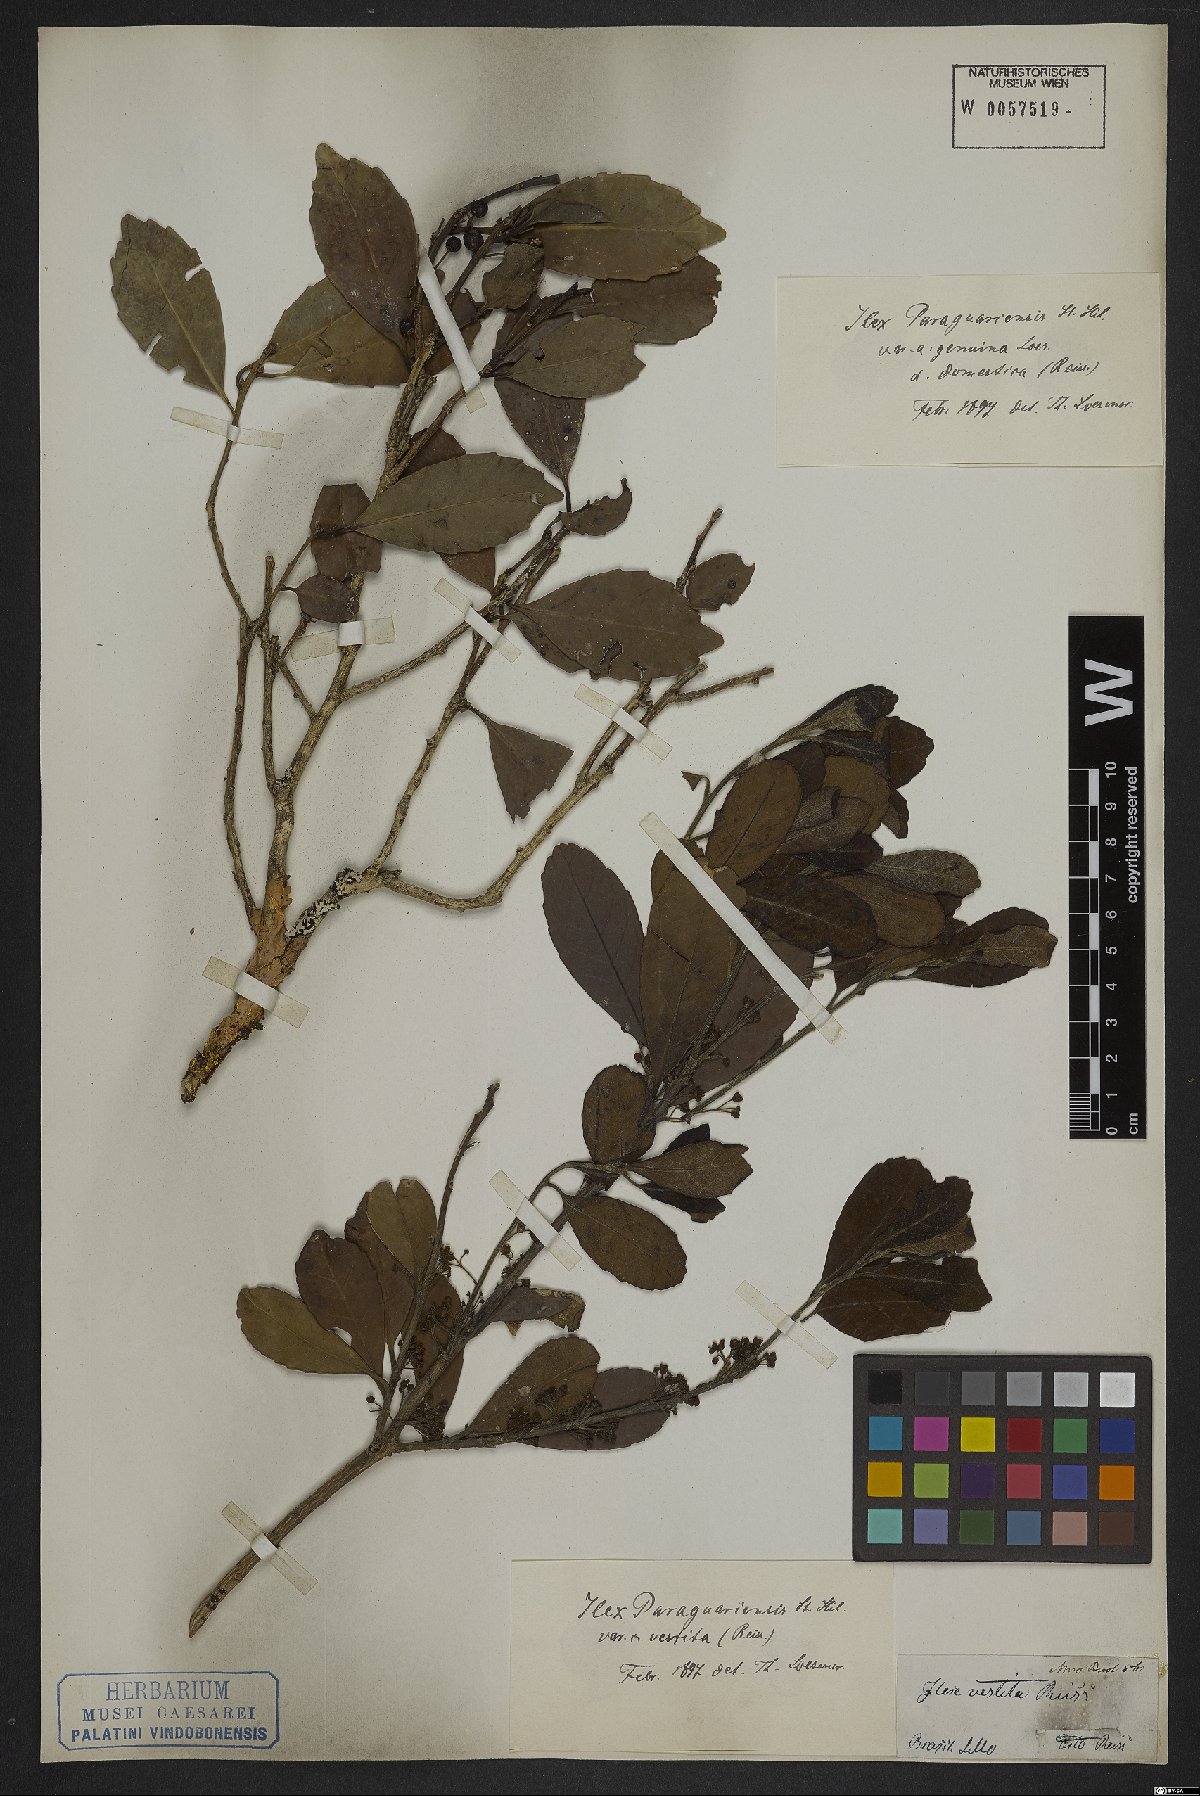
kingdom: Plantae
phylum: Tracheophyta
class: Magnoliopsida
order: Aquifoliales
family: Aquifoliaceae
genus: Ilex
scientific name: Ilex paraguariensis
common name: Paraguay tea
